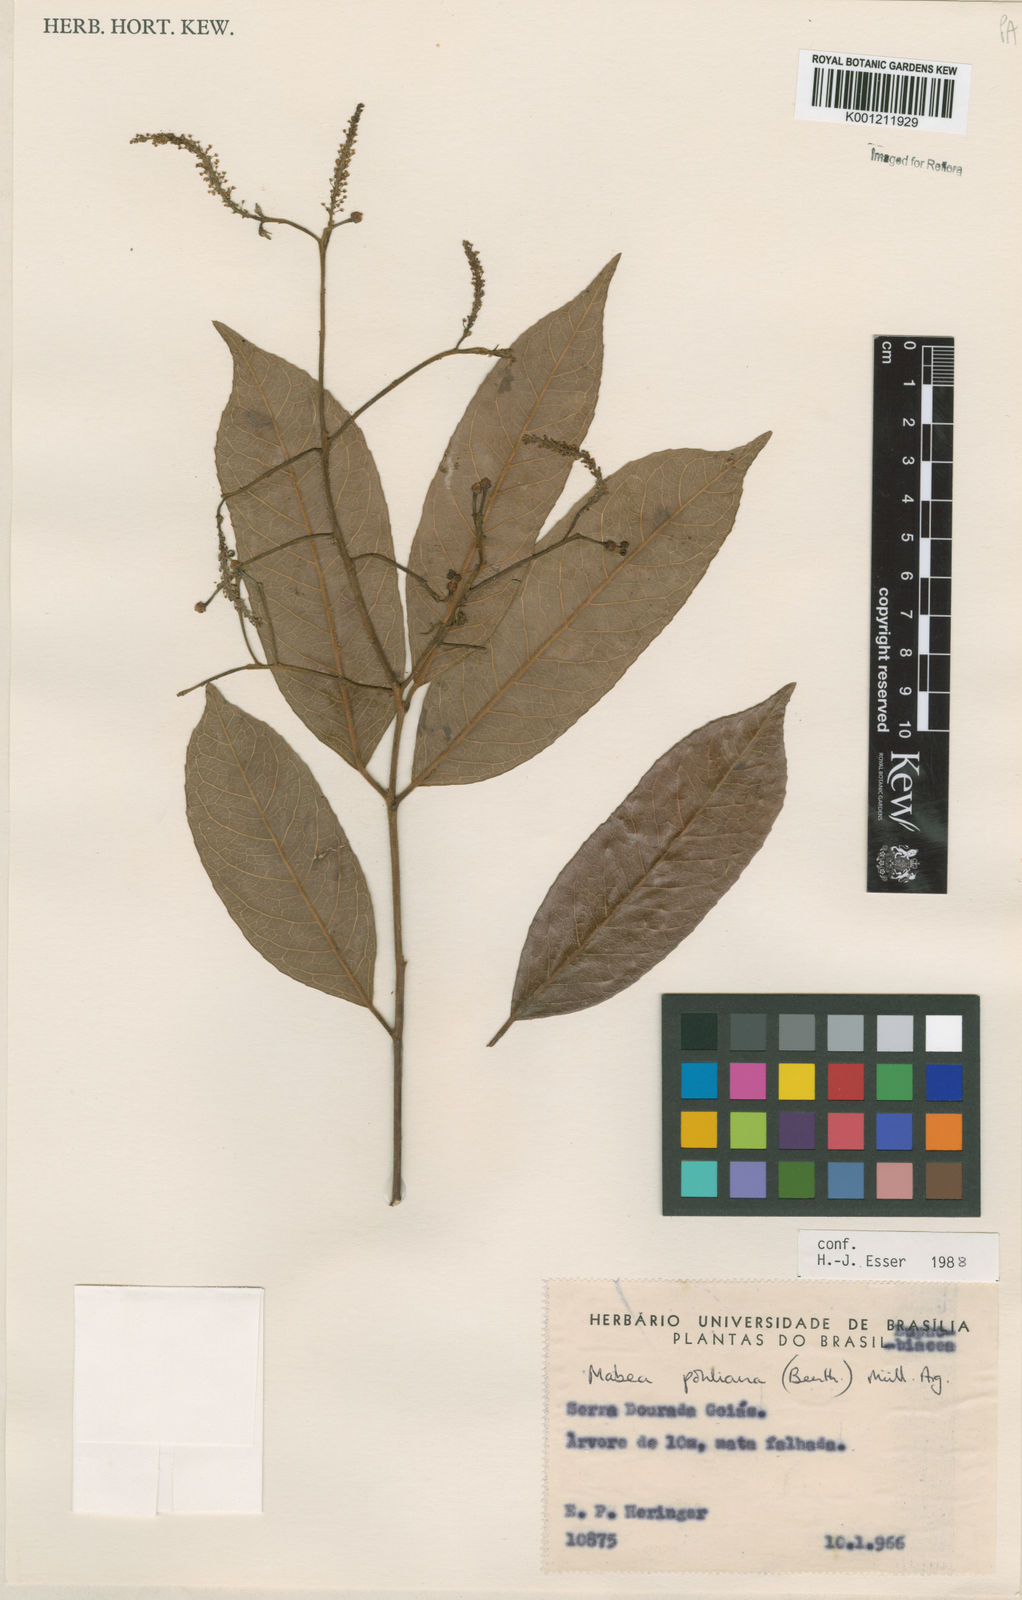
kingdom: Plantae
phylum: Tracheophyta
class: Magnoliopsida
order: Malpighiales
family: Euphorbiaceae
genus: Mabea
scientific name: Mabea
